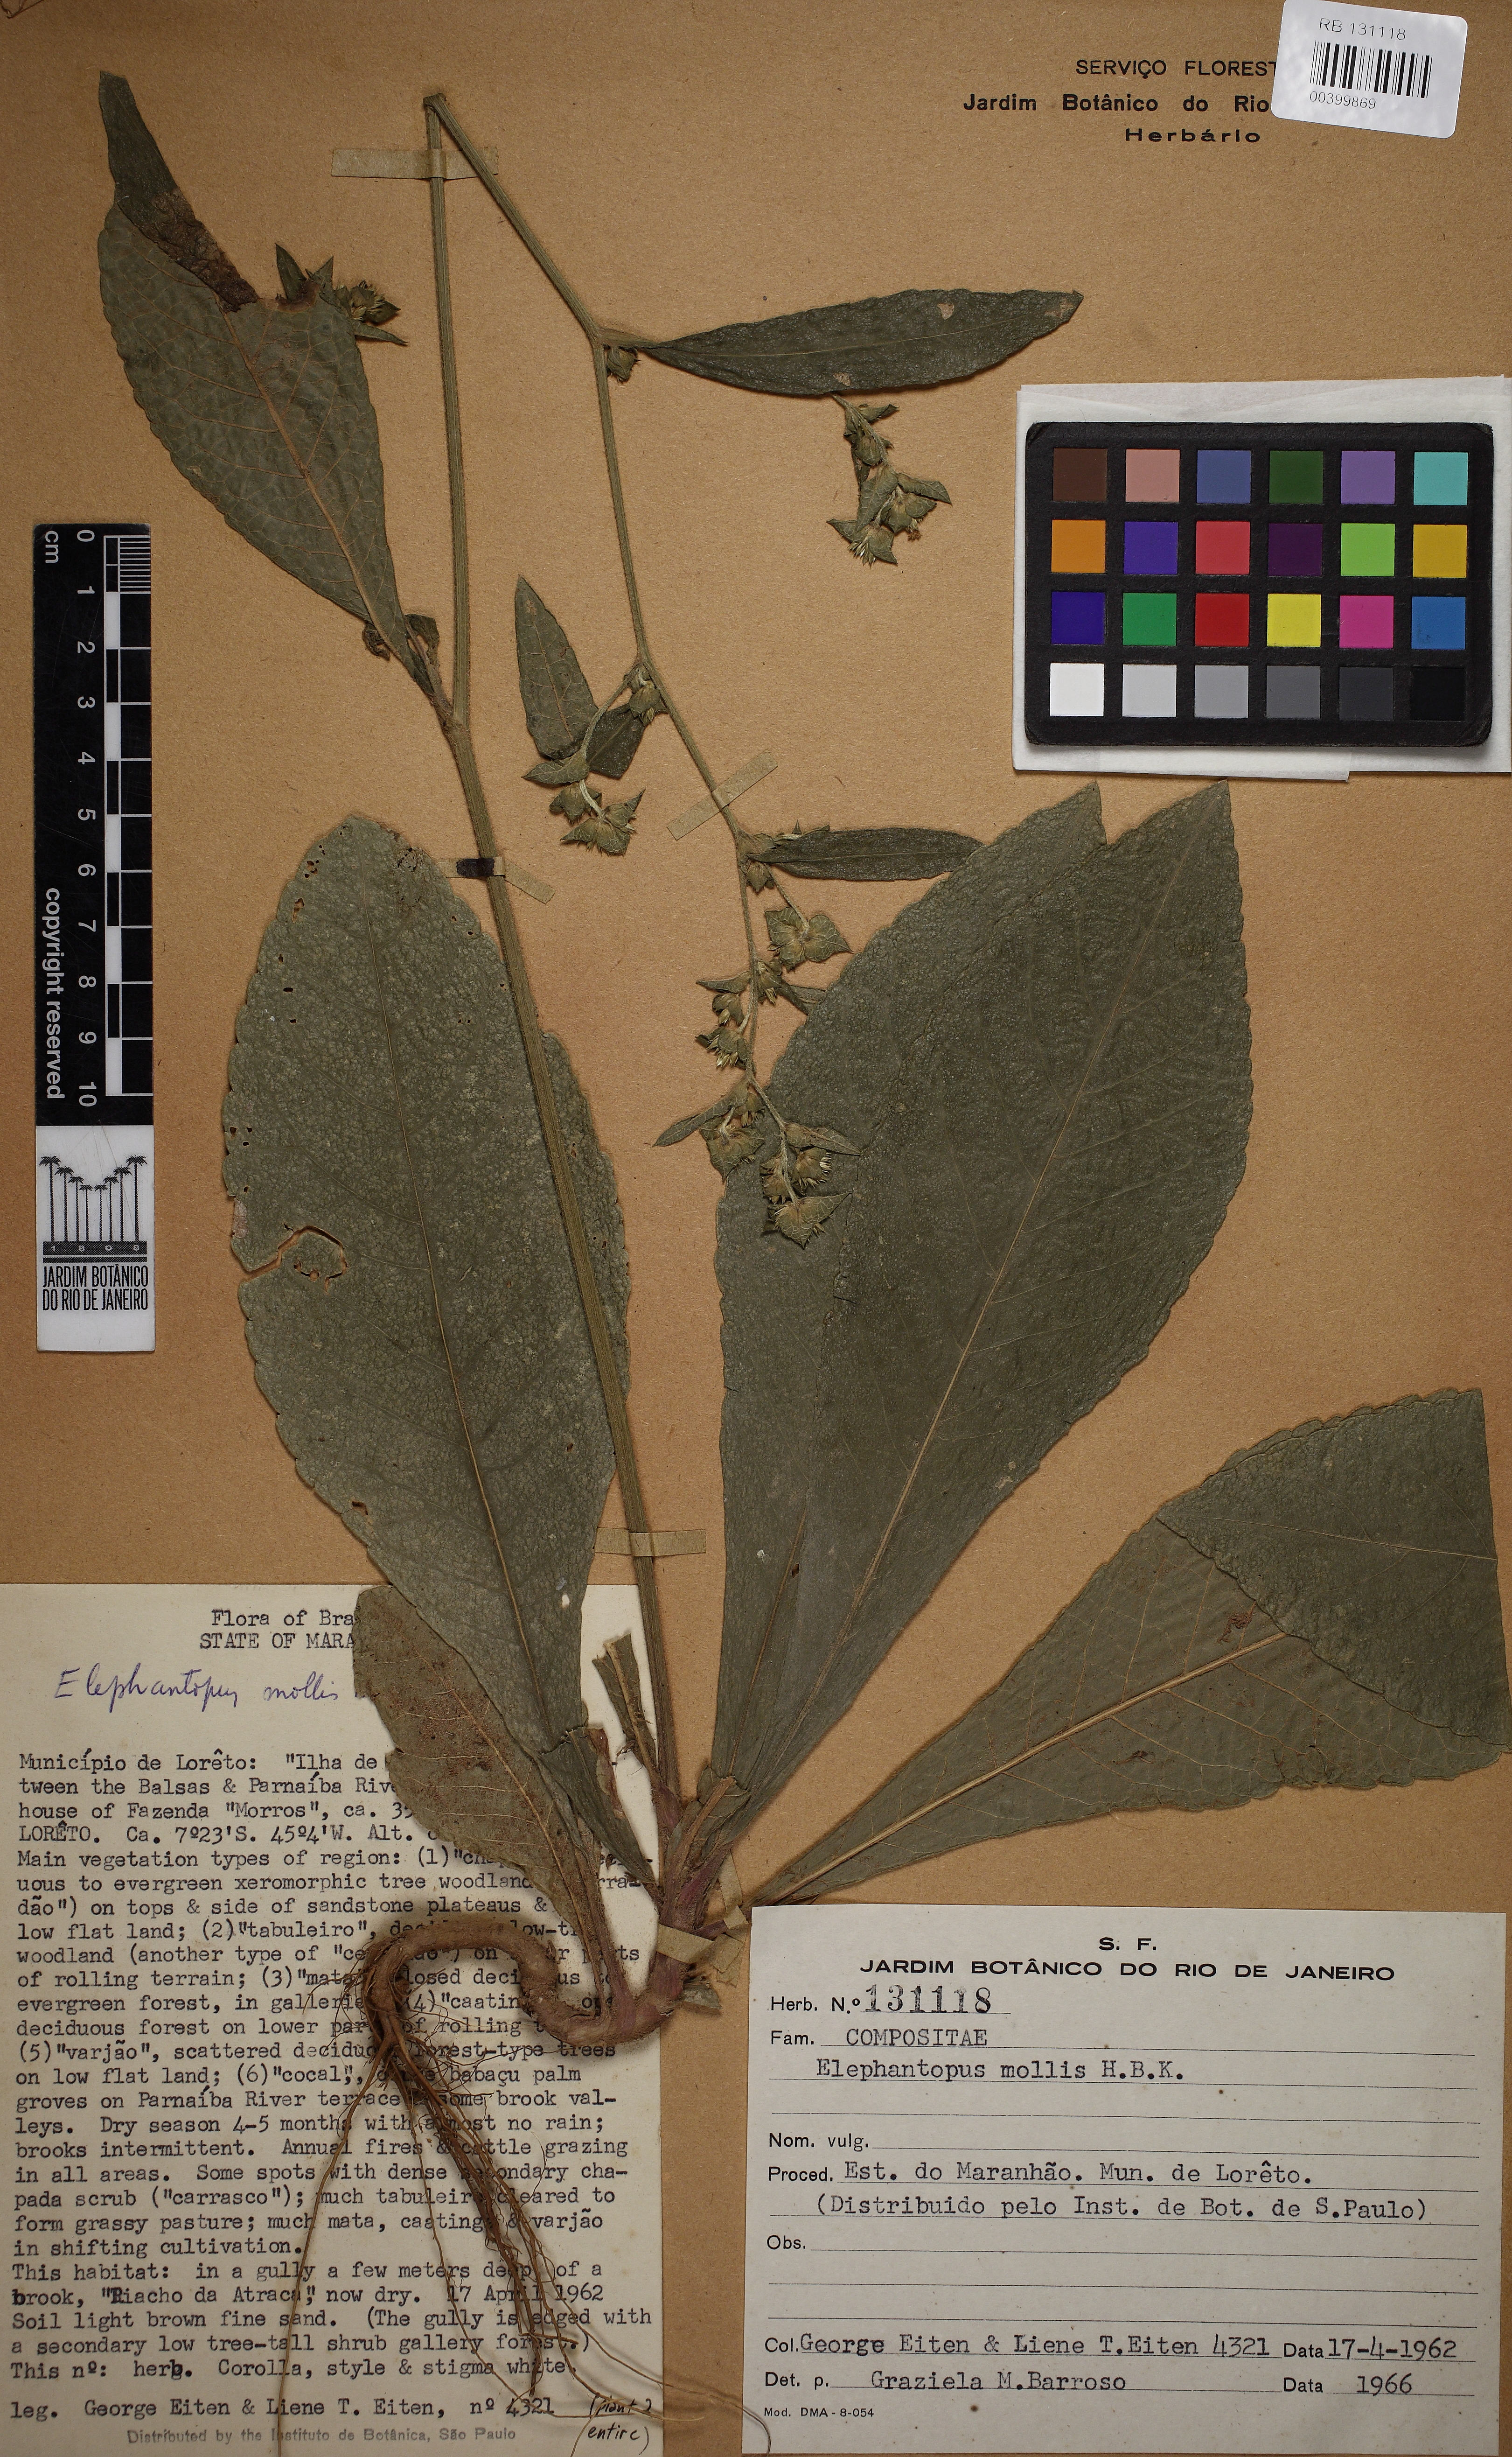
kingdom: Plantae
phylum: Tracheophyta
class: Magnoliopsida
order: Asterales
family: Asteraceae
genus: Elephantopus
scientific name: Elephantopus mollis
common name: Soft elephantsfoot
